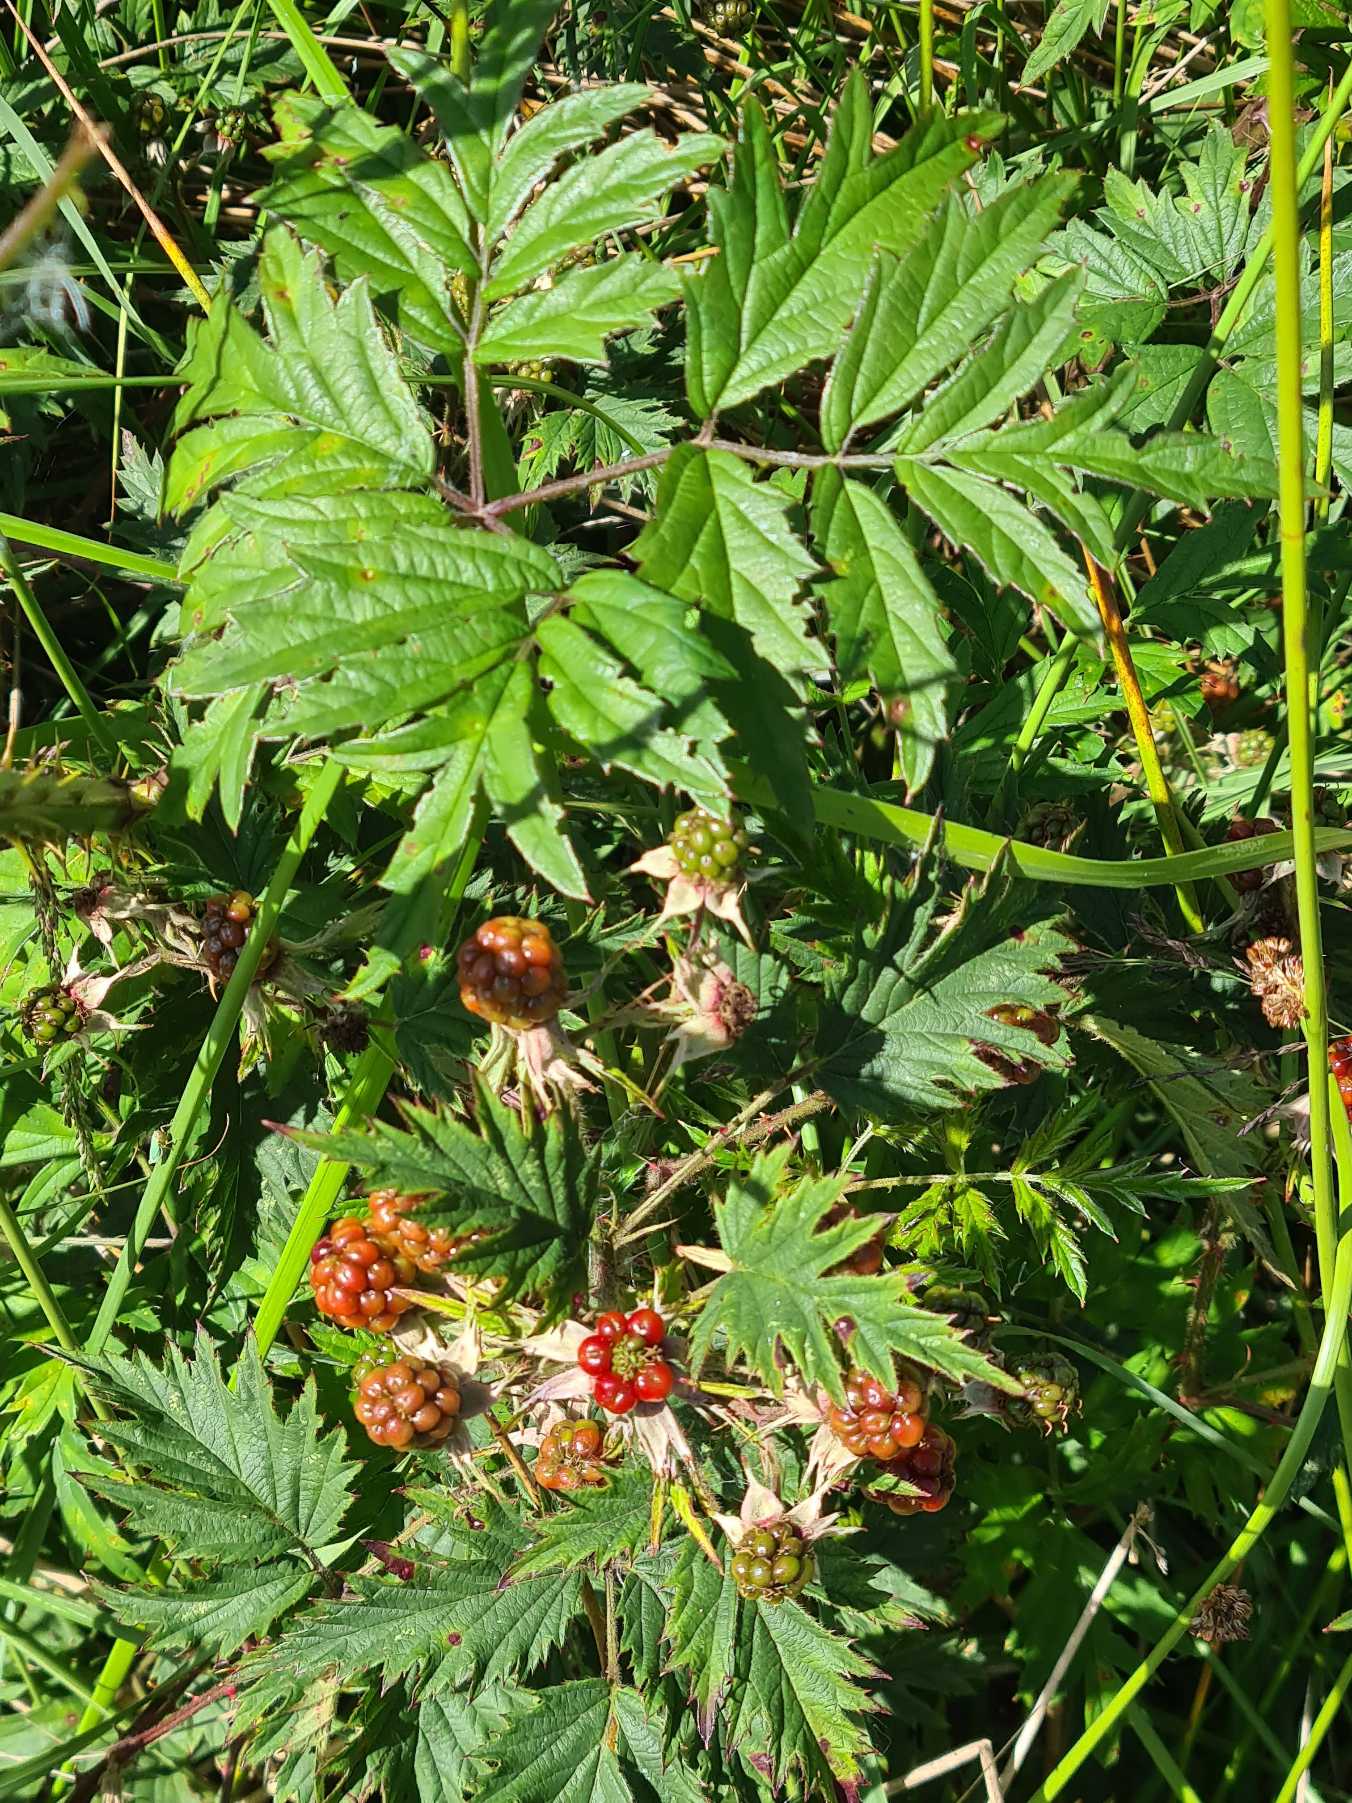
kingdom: Plantae
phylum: Tracheophyta
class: Magnoliopsida
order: Rosales
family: Rosaceae
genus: Rubus
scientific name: Rubus laciniatus
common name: Fliget brombær
